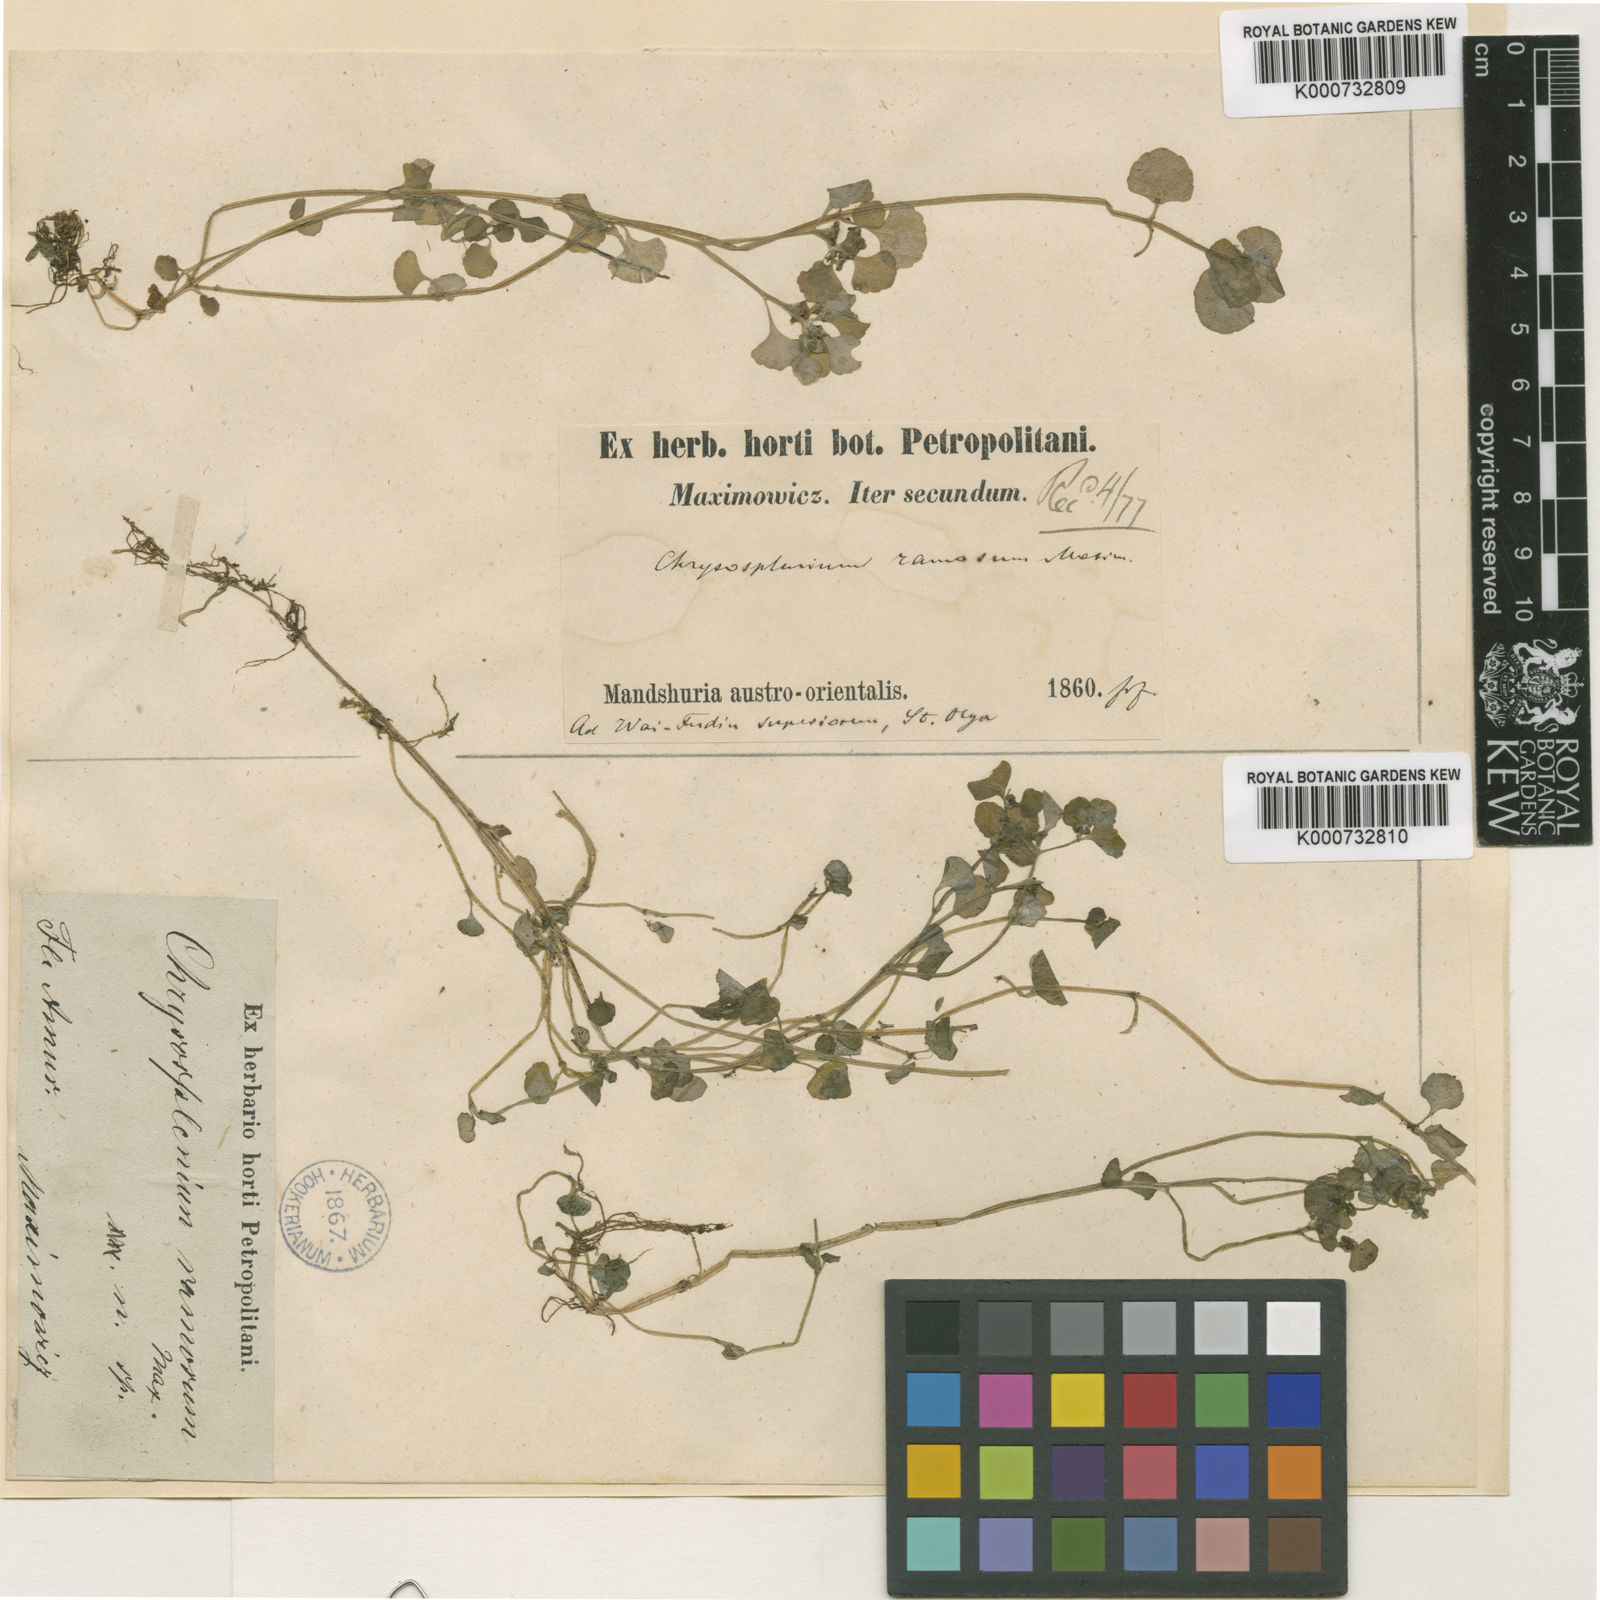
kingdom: Plantae
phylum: Tracheophyta
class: Magnoliopsida
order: Saxifragales
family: Saxifragaceae
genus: Chrysosplenium
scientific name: Chrysosplenium ramosum
